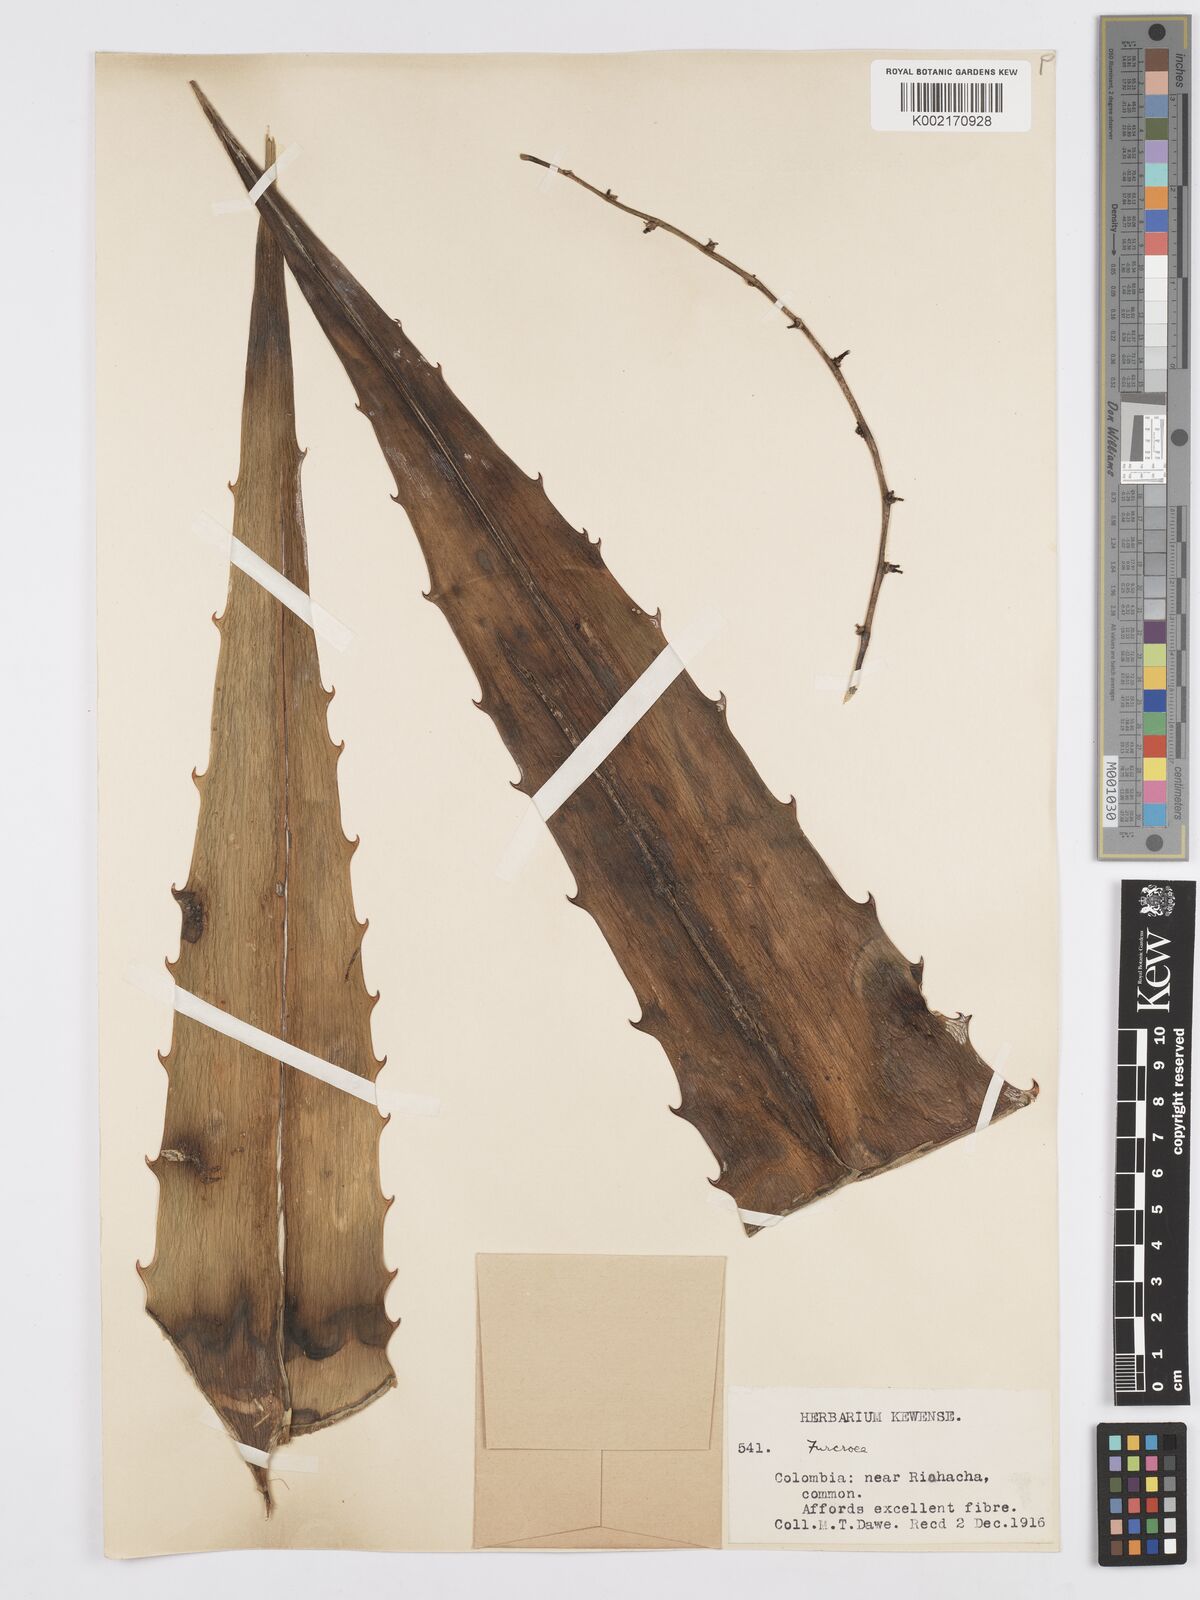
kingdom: Plantae
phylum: Tracheophyta
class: Liliopsida
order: Asparagales
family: Asparagaceae
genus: Furcraea
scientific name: Furcraea
